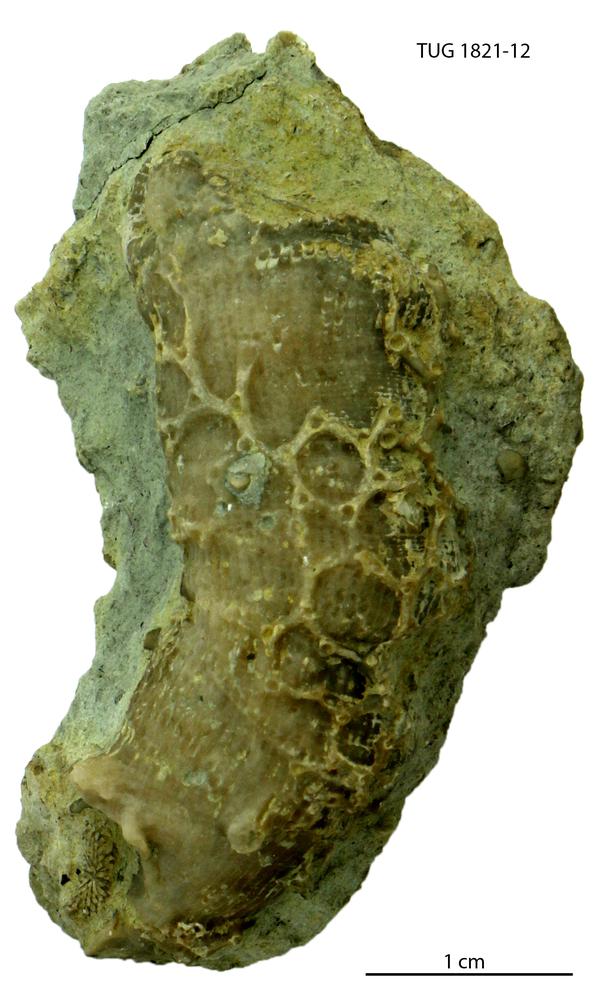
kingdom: Animalia
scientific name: Animalia
